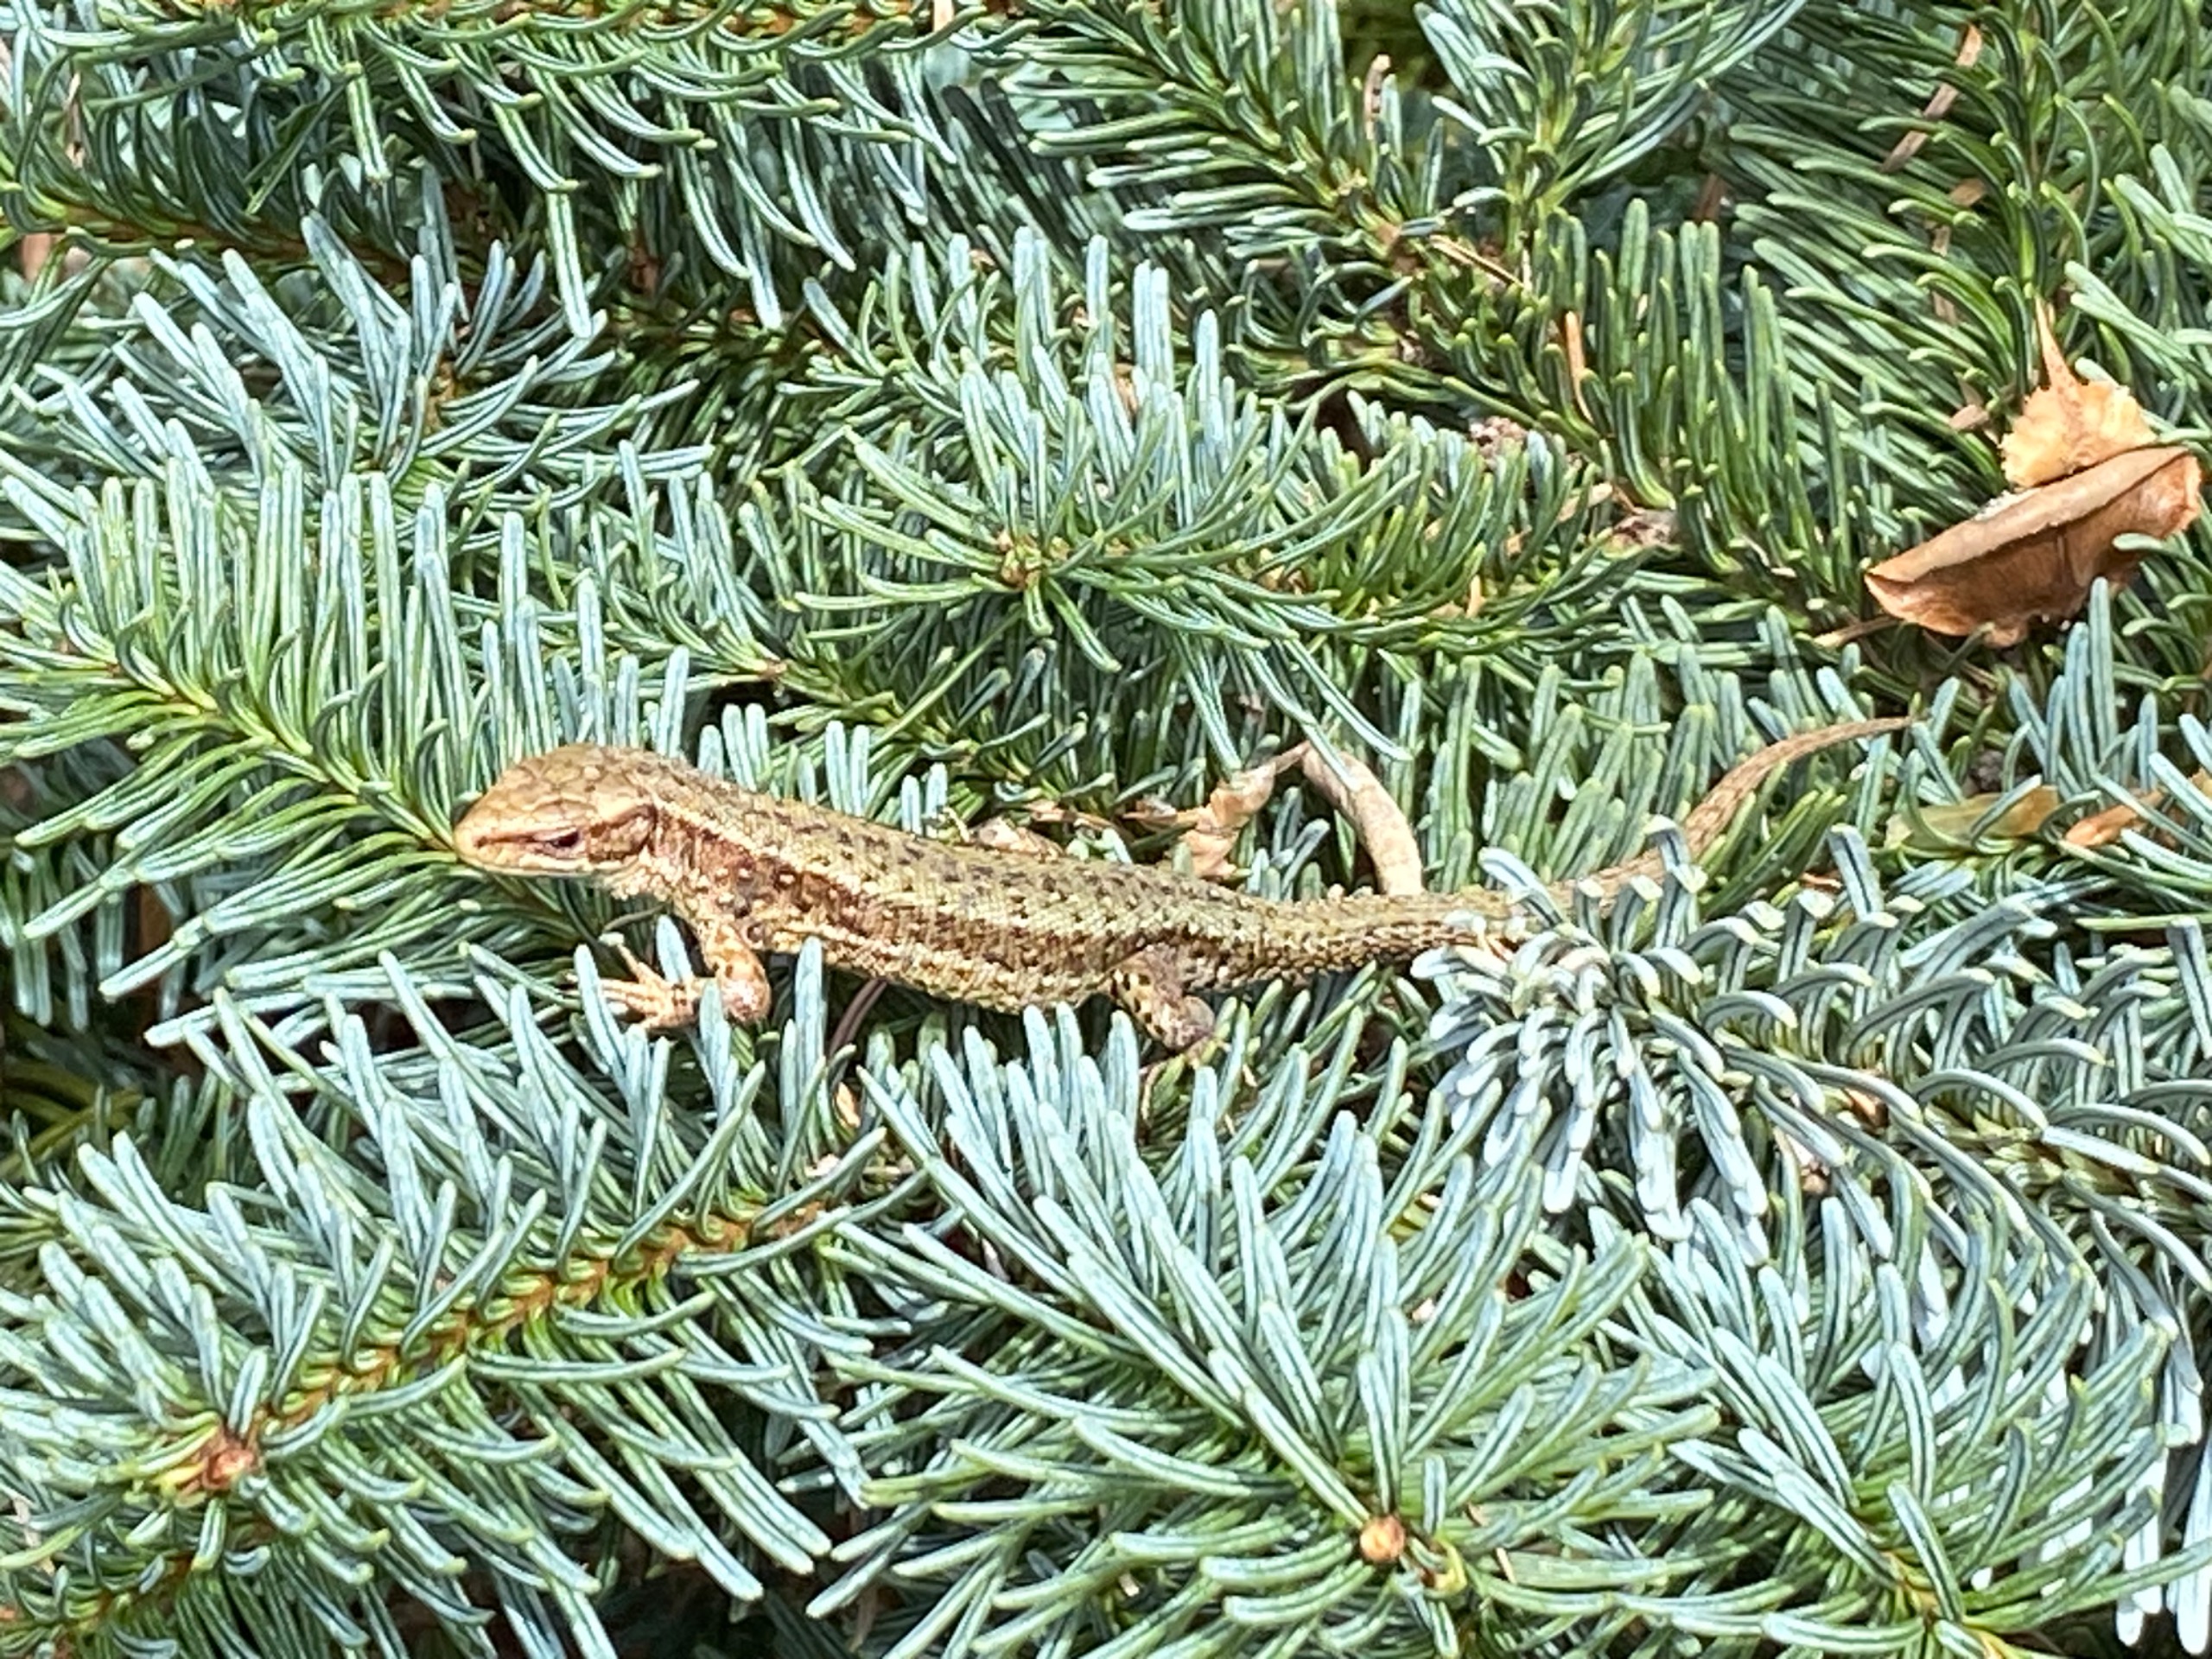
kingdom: Animalia
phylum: Chordata
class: Squamata
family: Lacertidae
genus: Zootoca
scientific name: Zootoca vivipara
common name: Skovfirben
